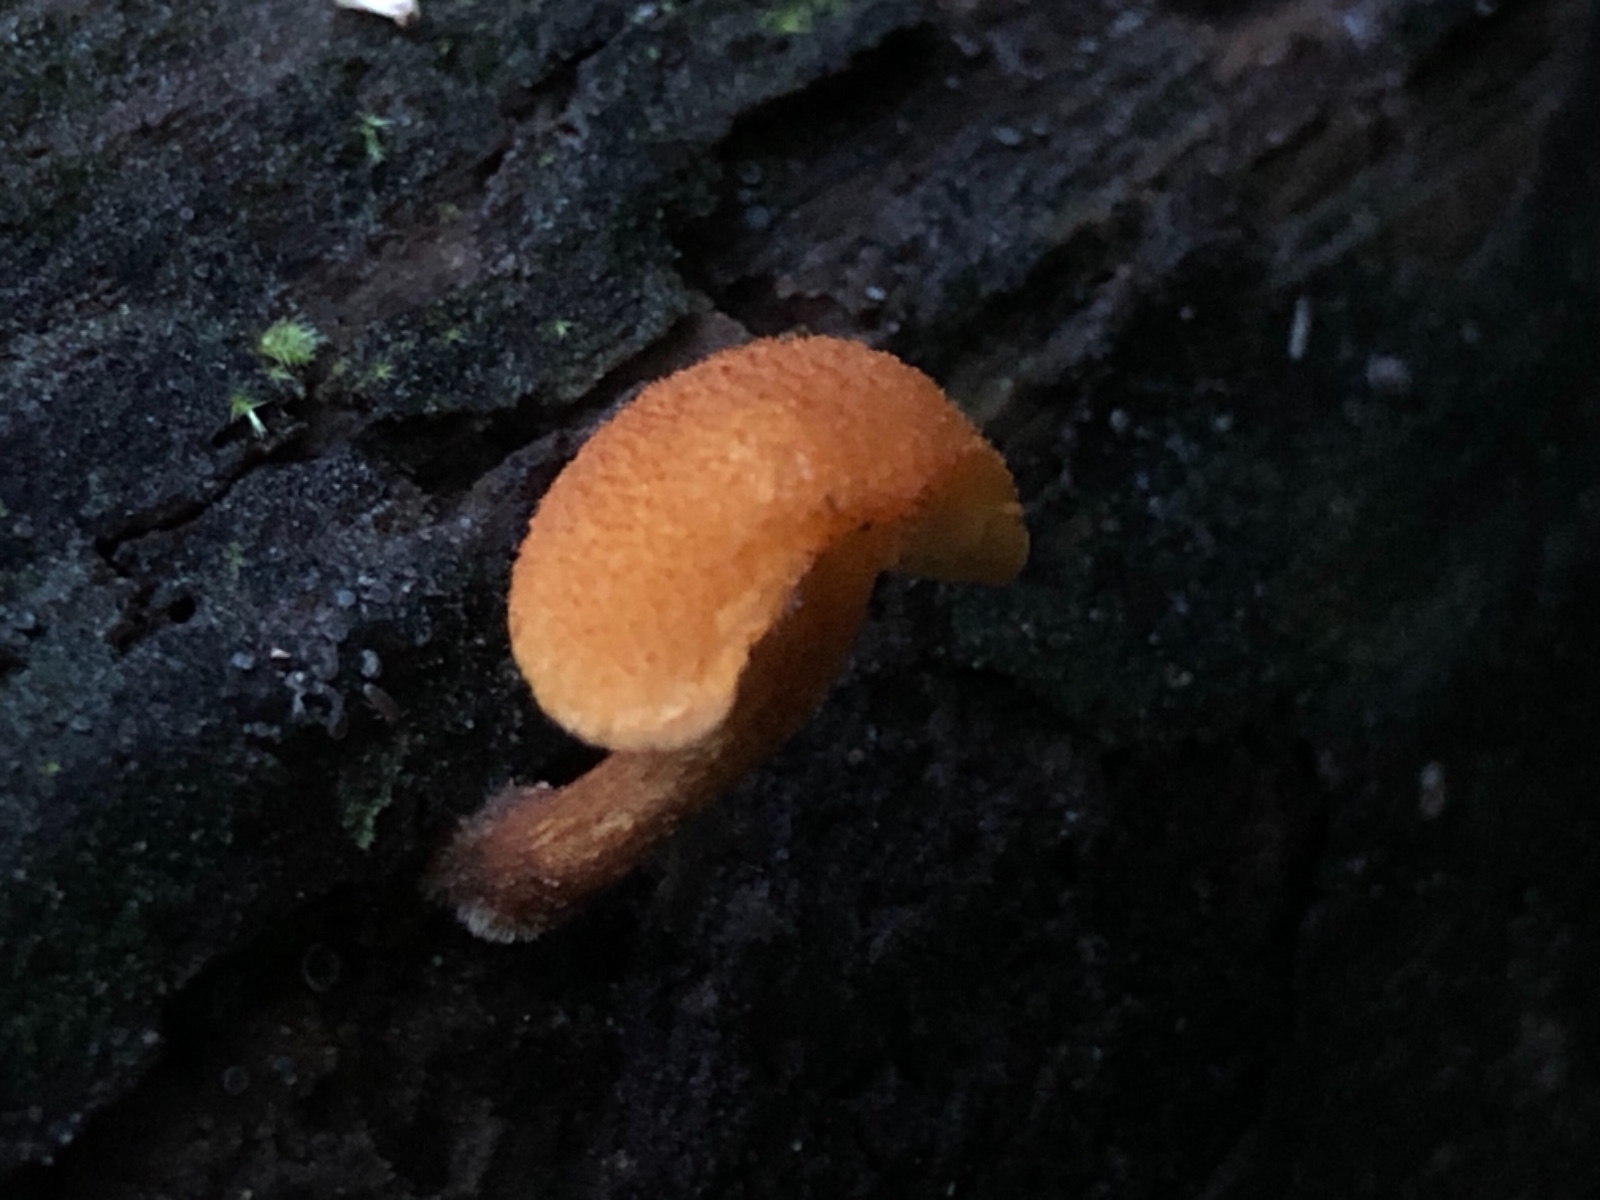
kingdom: Fungi
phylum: Basidiomycota
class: Agaricomycetes
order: Agaricales
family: Tubariaceae
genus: Flammulaster
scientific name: Flammulaster limulatus
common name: gylden grynskælhat
